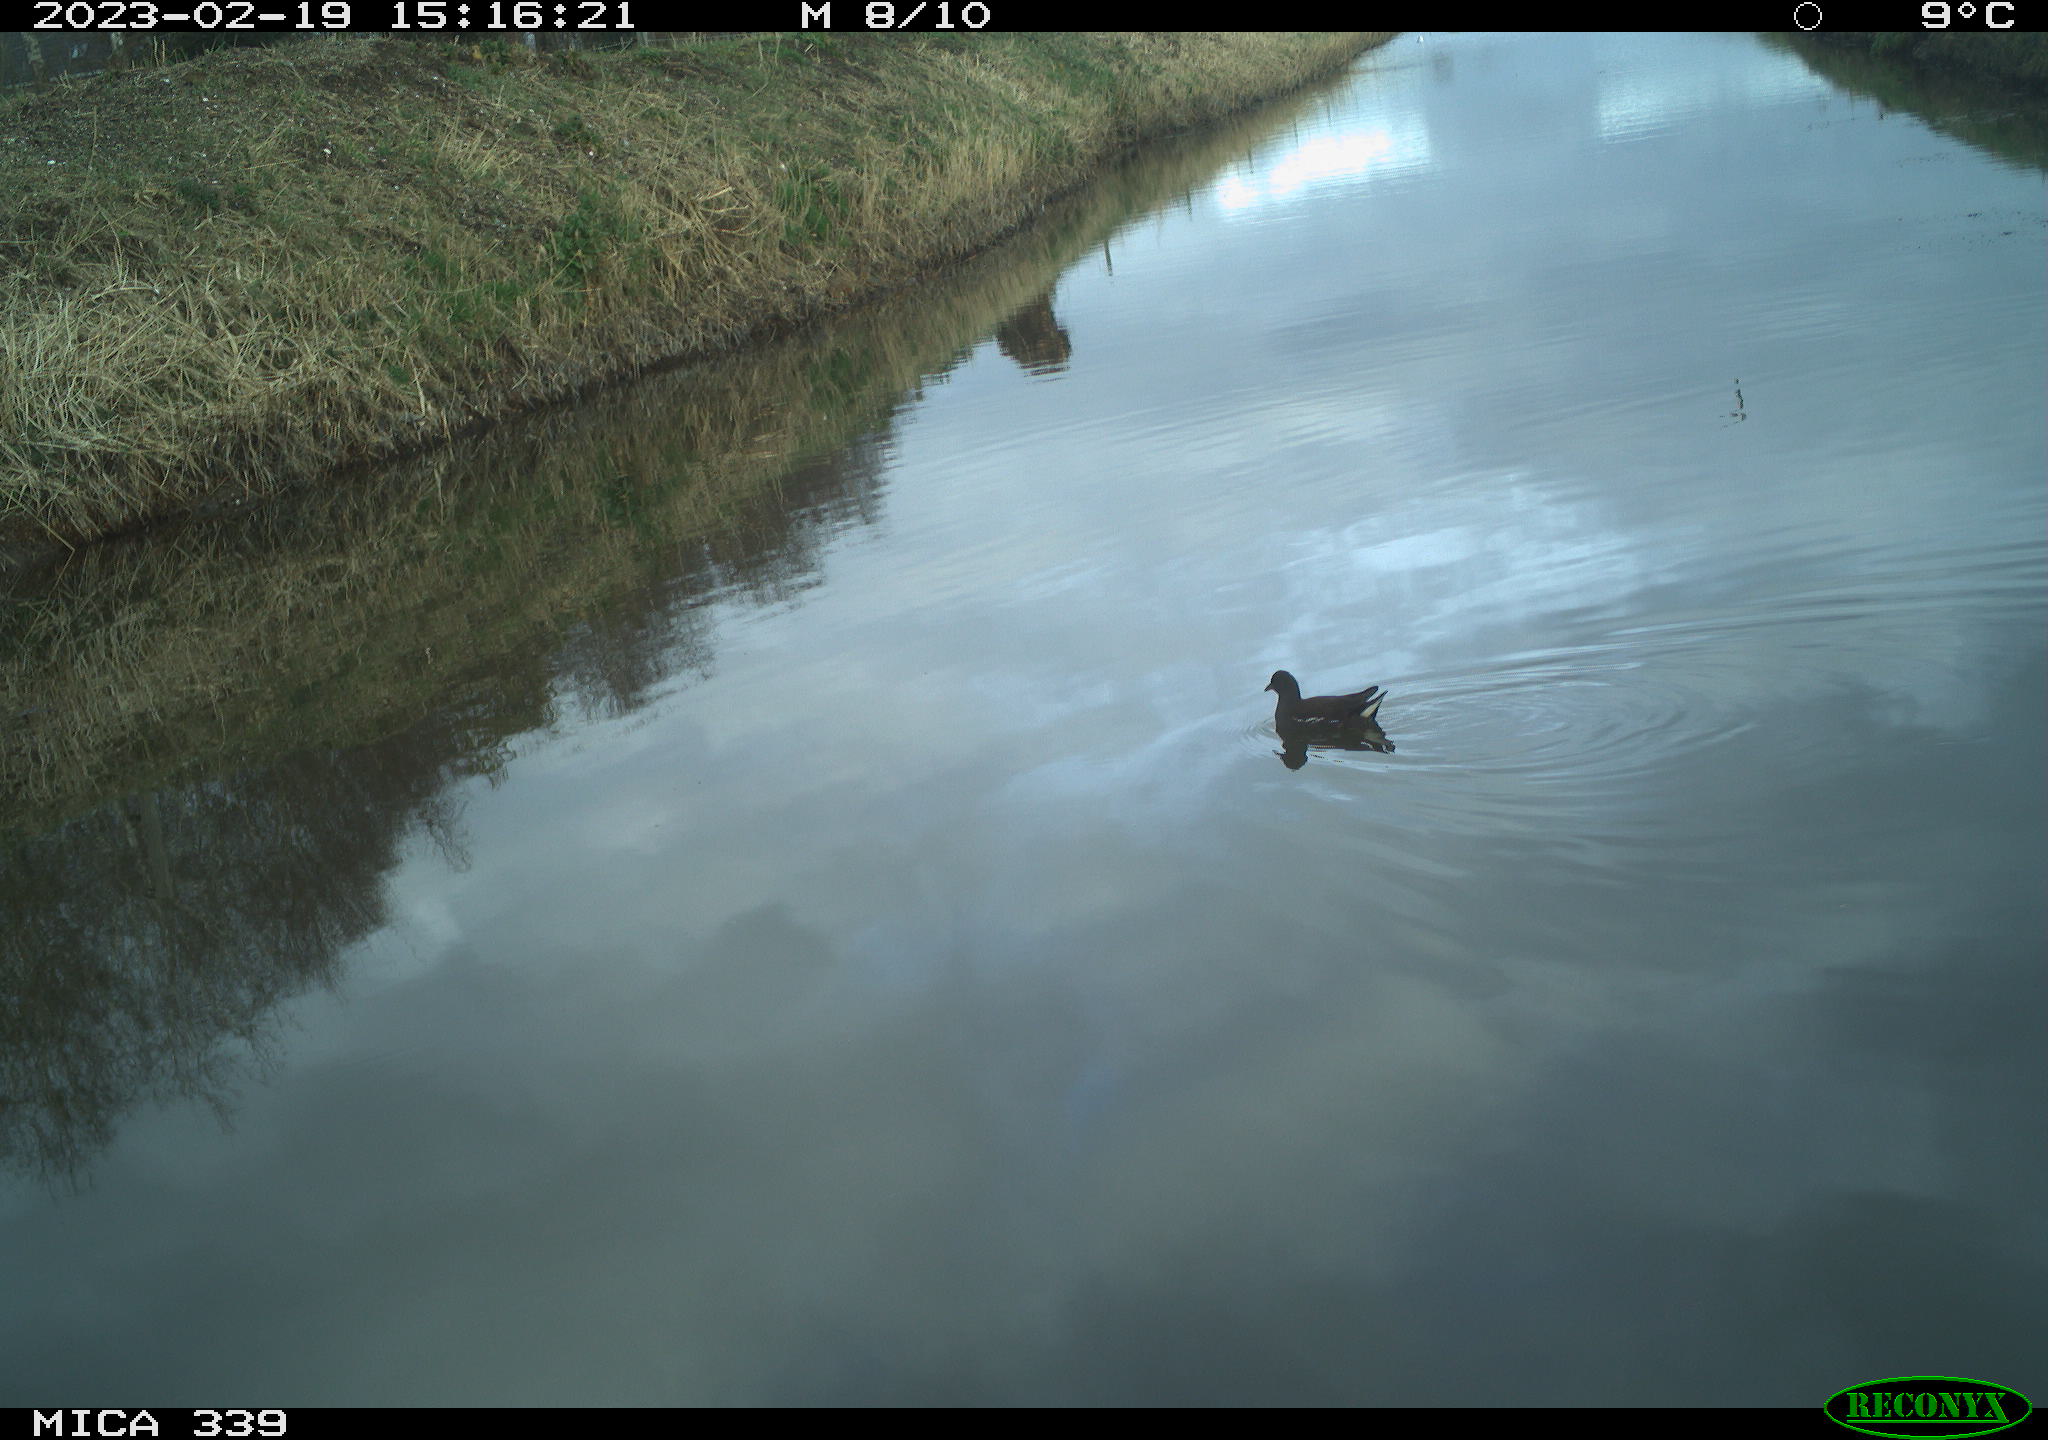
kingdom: Animalia
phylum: Chordata
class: Aves
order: Gruiformes
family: Rallidae
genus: Gallinula
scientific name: Gallinula chloropus
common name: Common moorhen
